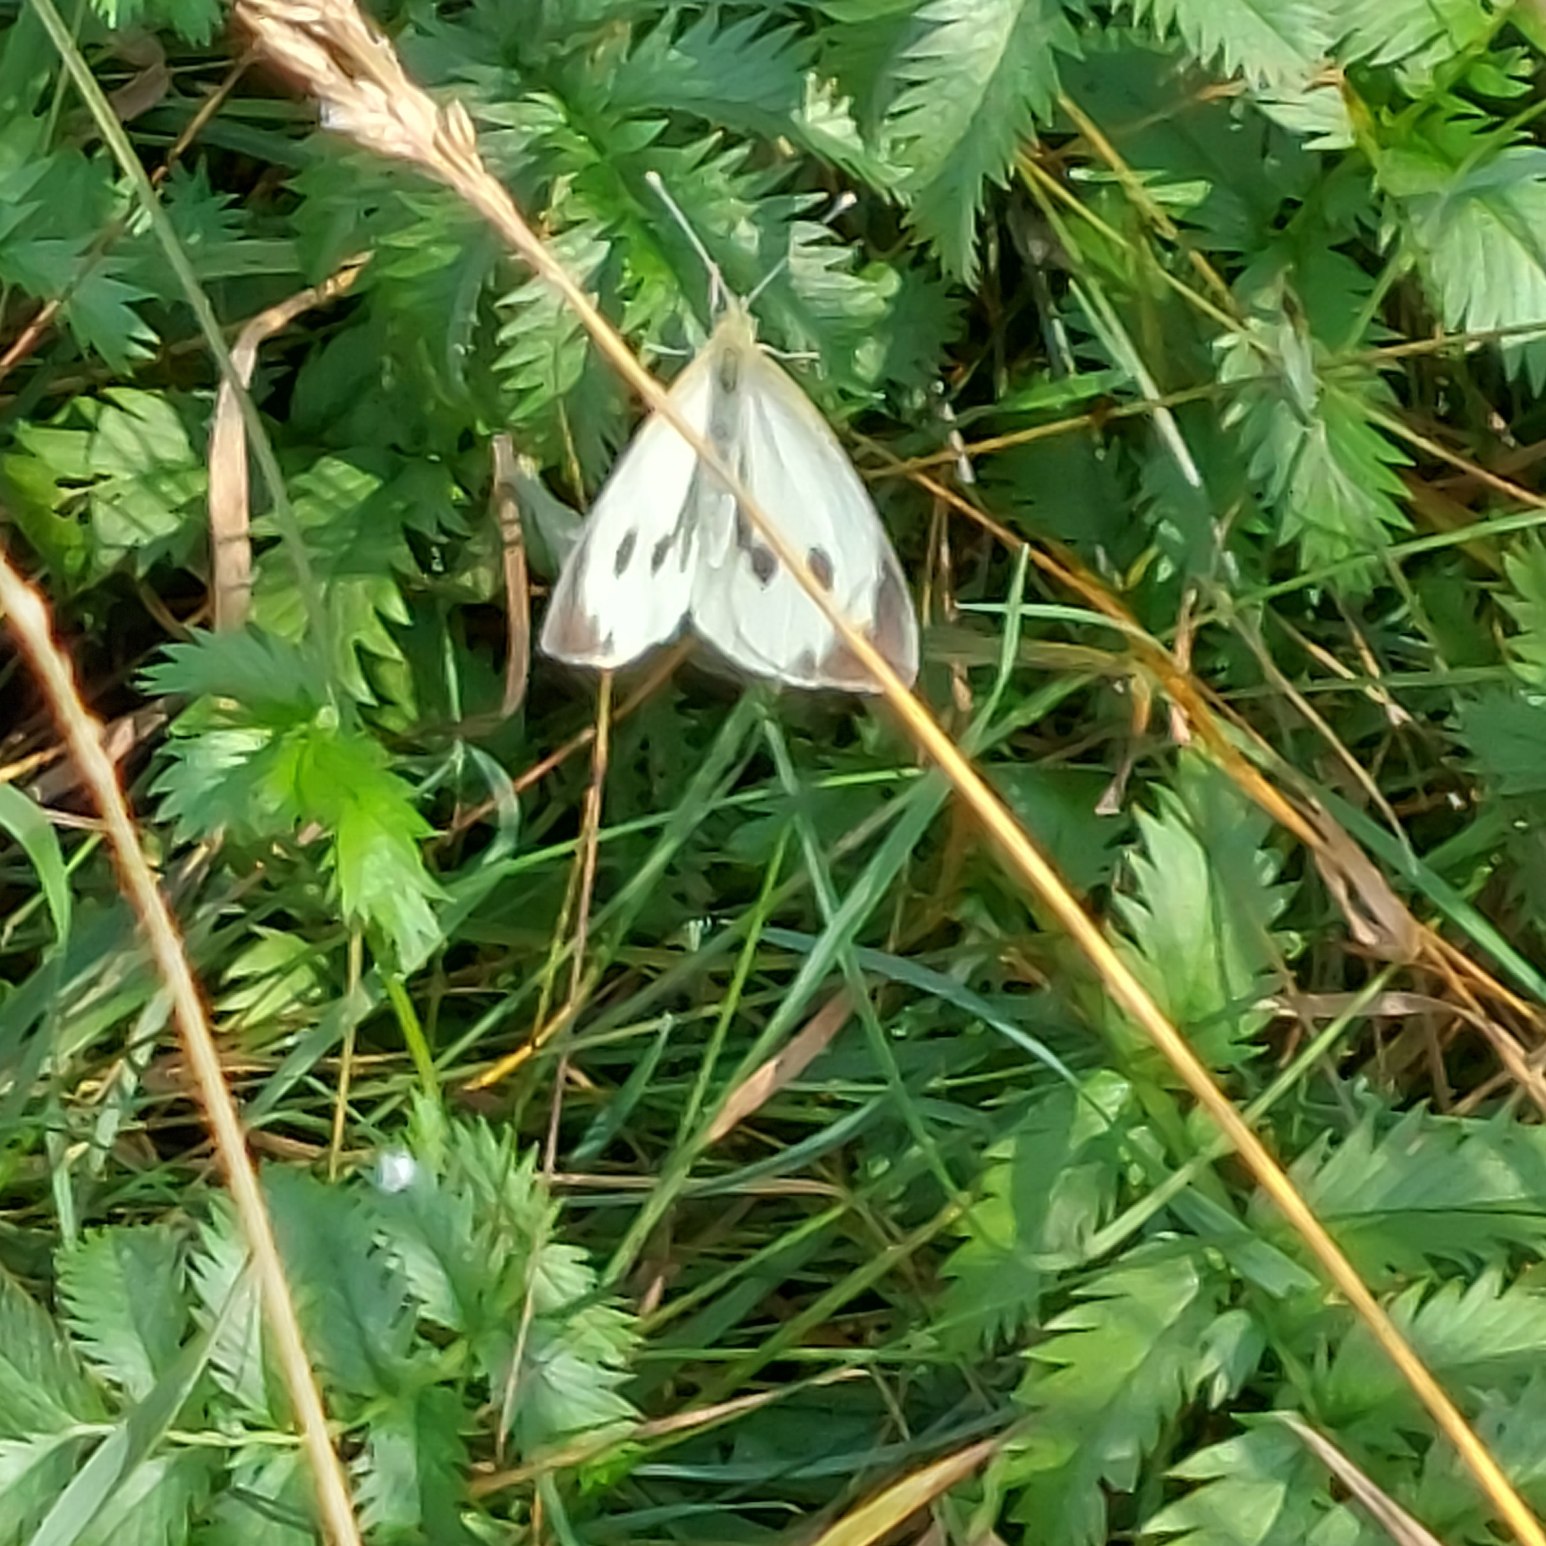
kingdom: Animalia
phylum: Arthropoda
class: Insecta
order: Lepidoptera
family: Pieridae
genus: Pieris
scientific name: Pieris brassicae
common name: Stor kålsommerfugl
